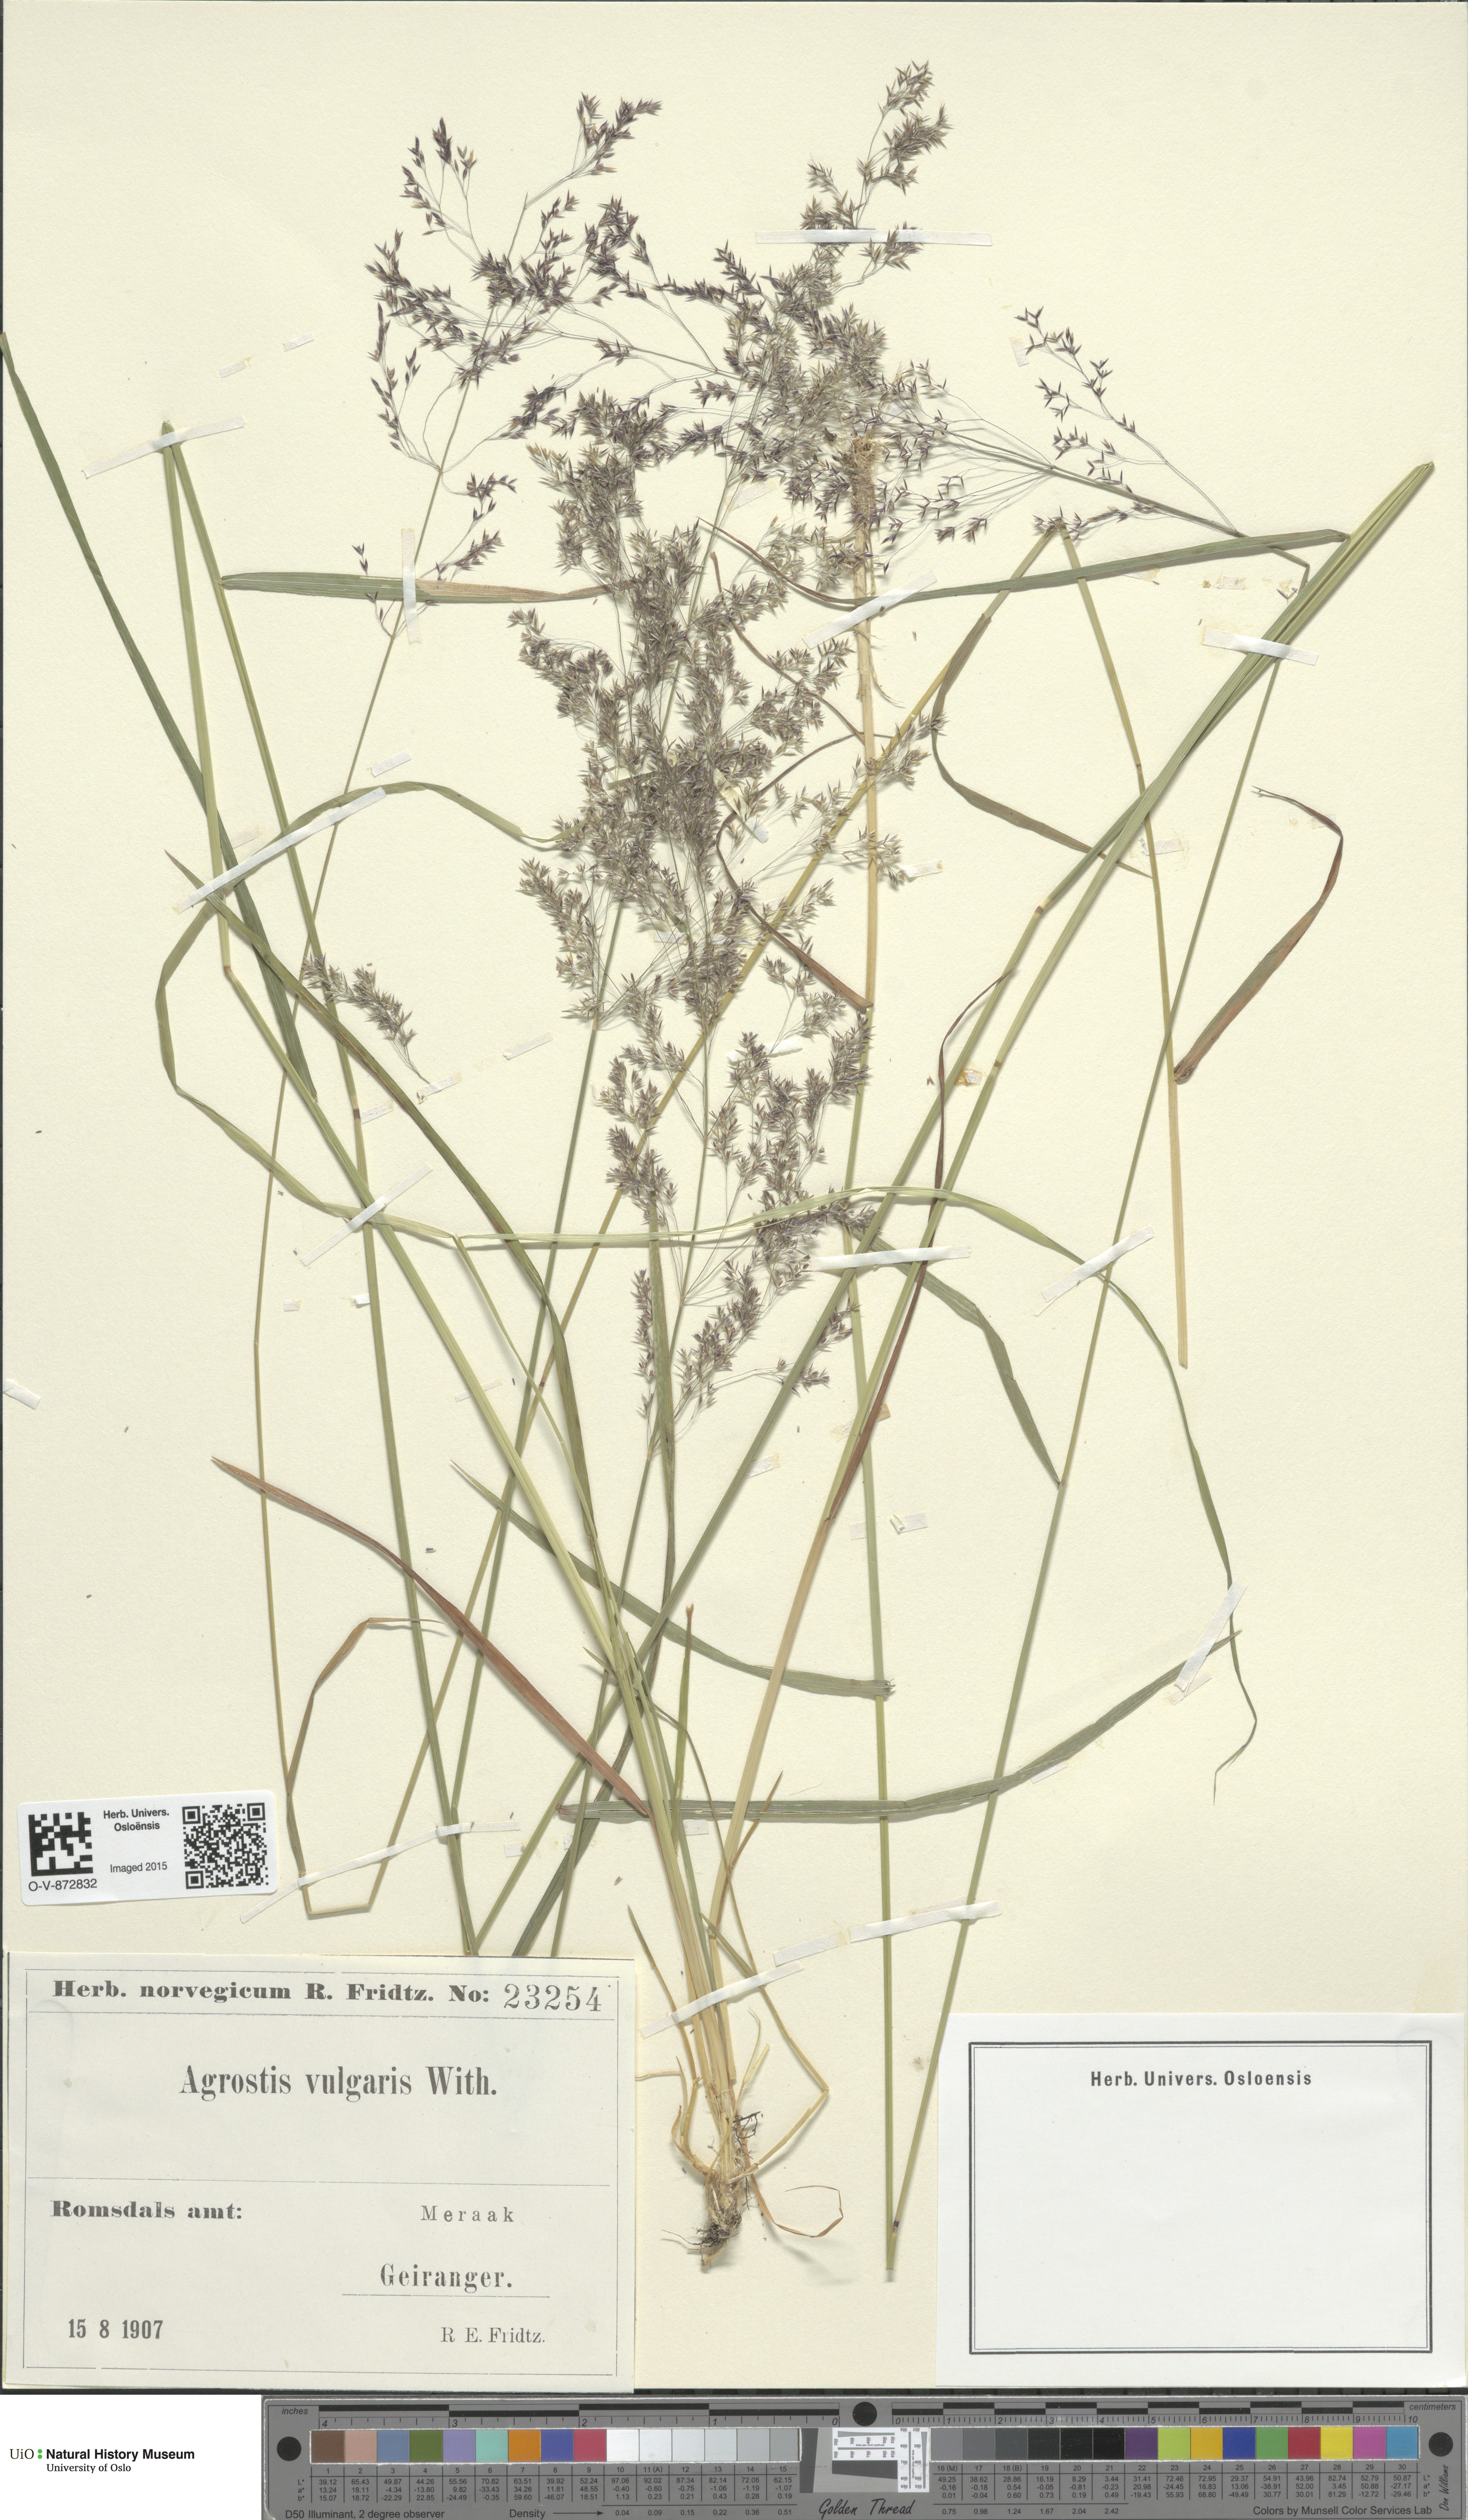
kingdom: Plantae
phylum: Tracheophyta
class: Liliopsida
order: Poales
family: Poaceae
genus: Agrostis
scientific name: Agrostis capillaris
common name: Colonial bentgrass
